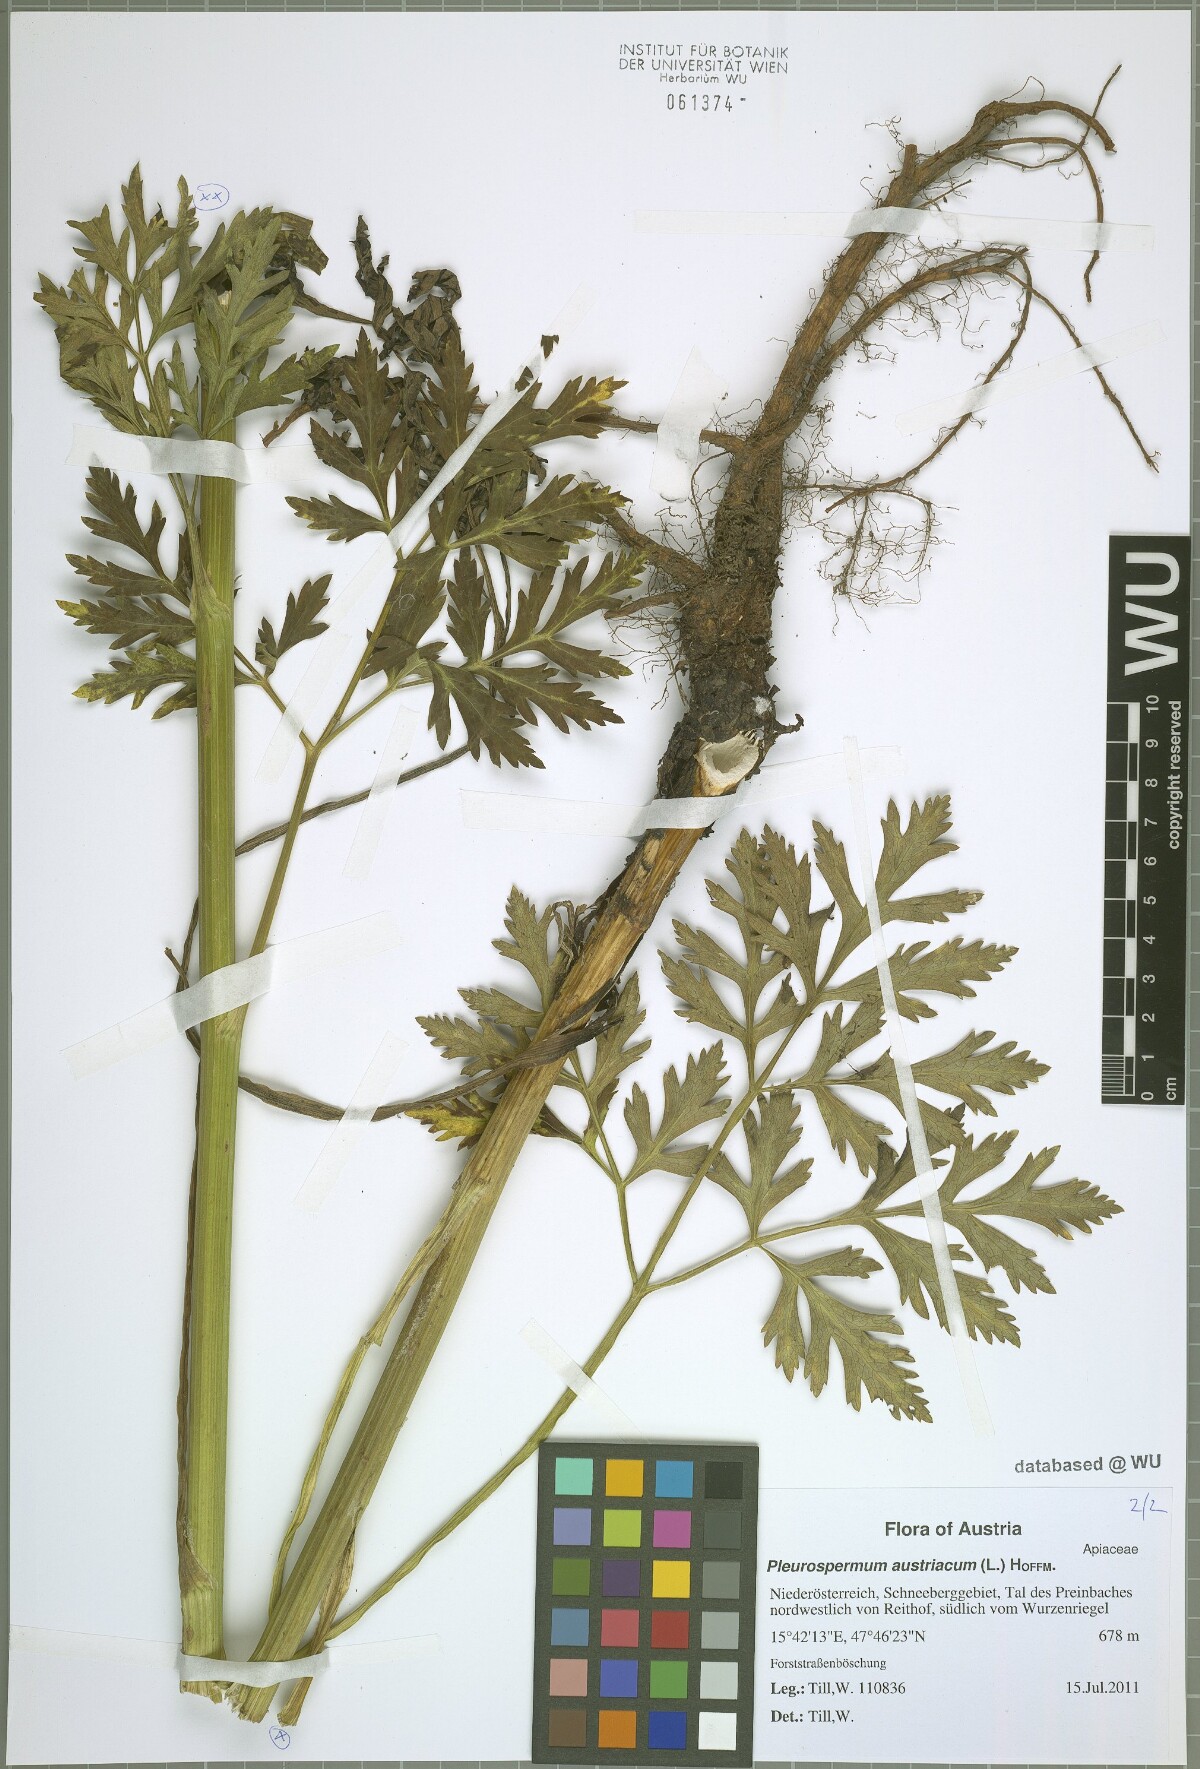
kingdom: Plantae
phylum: Tracheophyta
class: Magnoliopsida
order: Apiales
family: Apiaceae
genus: Pleurospermum
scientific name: Pleurospermum austriacum
